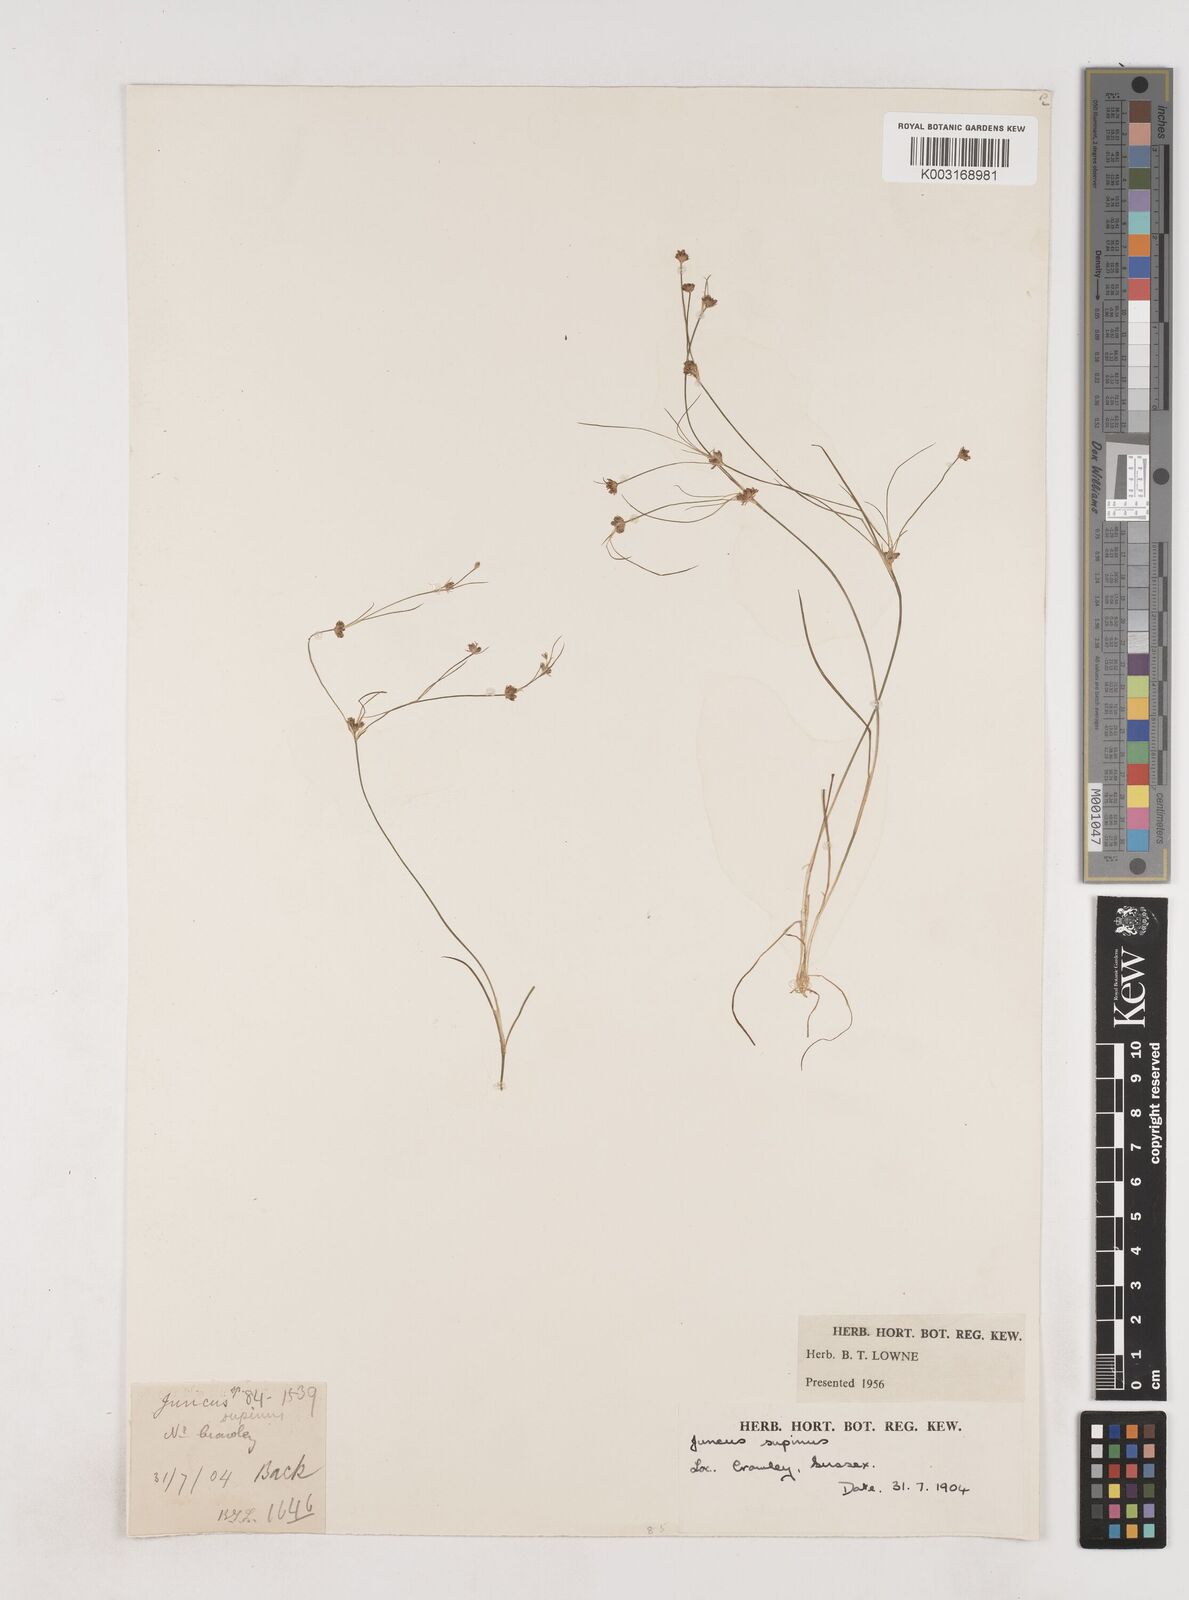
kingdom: Plantae
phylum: Tracheophyta
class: Liliopsida
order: Poales
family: Juncaceae
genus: Juncus
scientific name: Juncus bulbosus
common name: Bulbous rush
